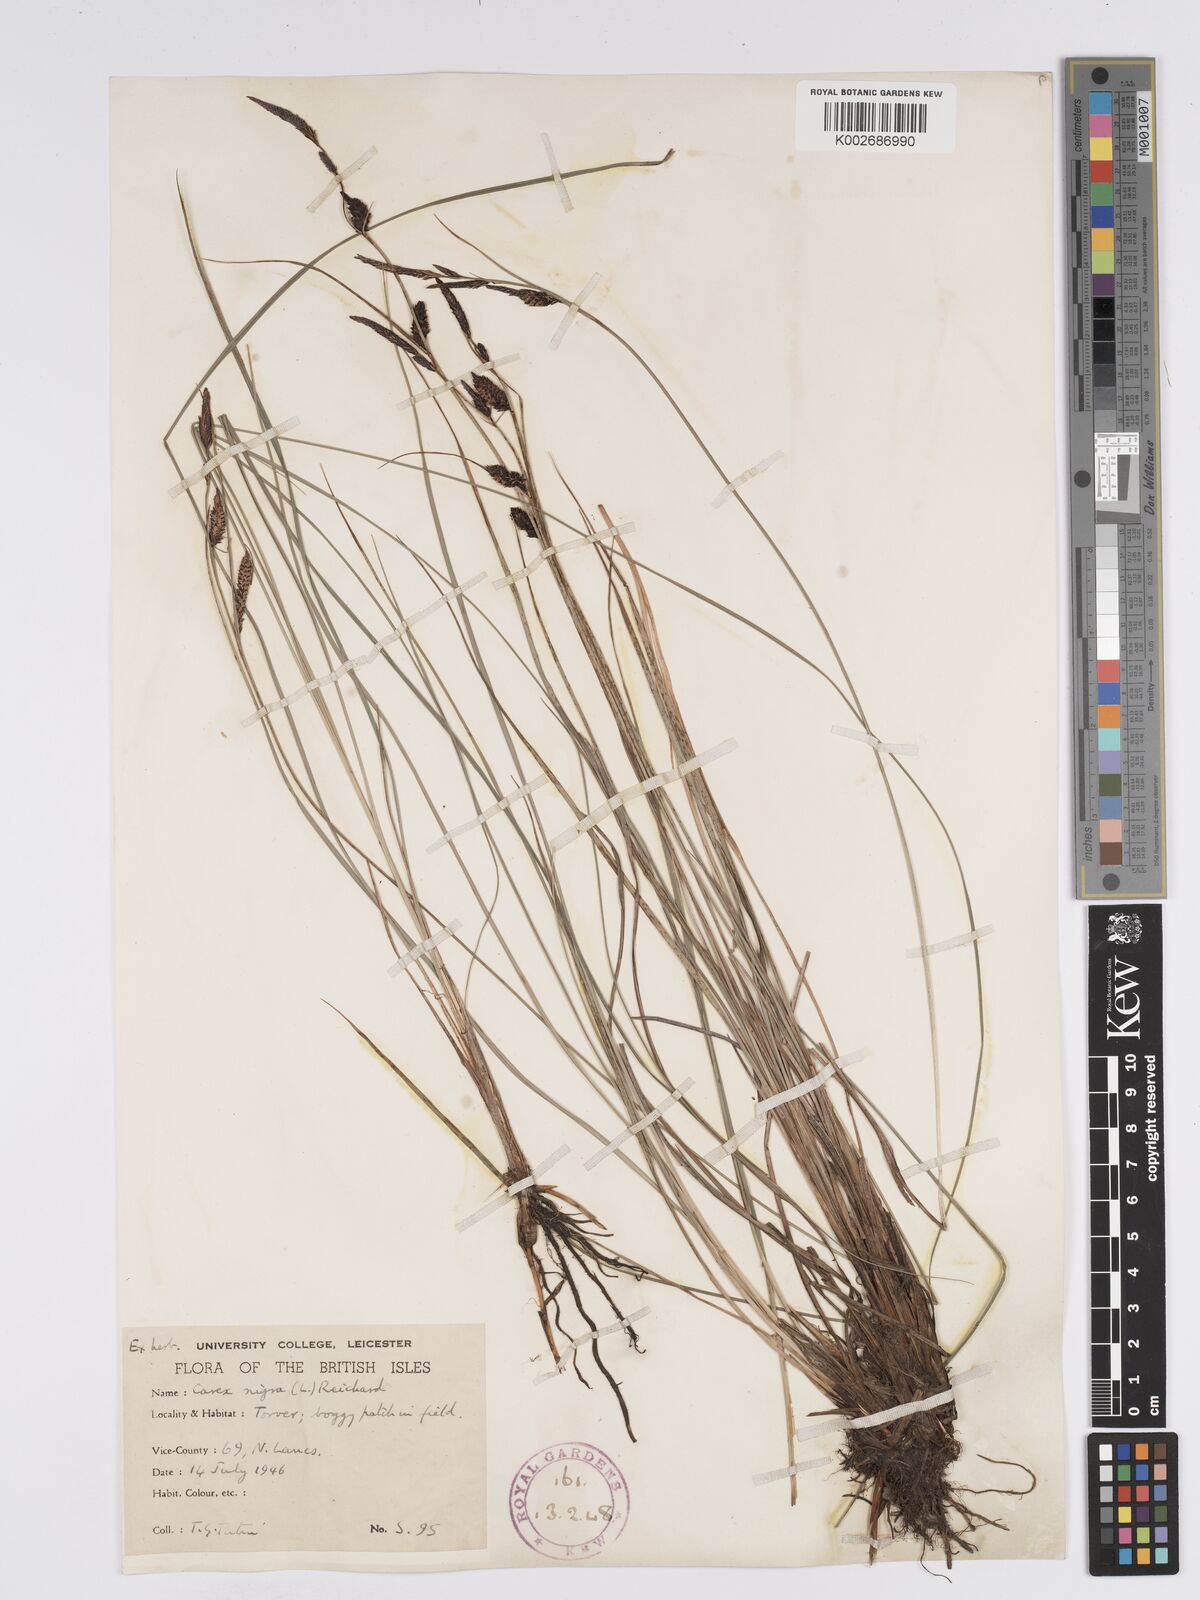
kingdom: Plantae
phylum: Tracheophyta
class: Liliopsida
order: Poales
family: Cyperaceae
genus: Carex
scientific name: Carex nigra
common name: Common sedge
